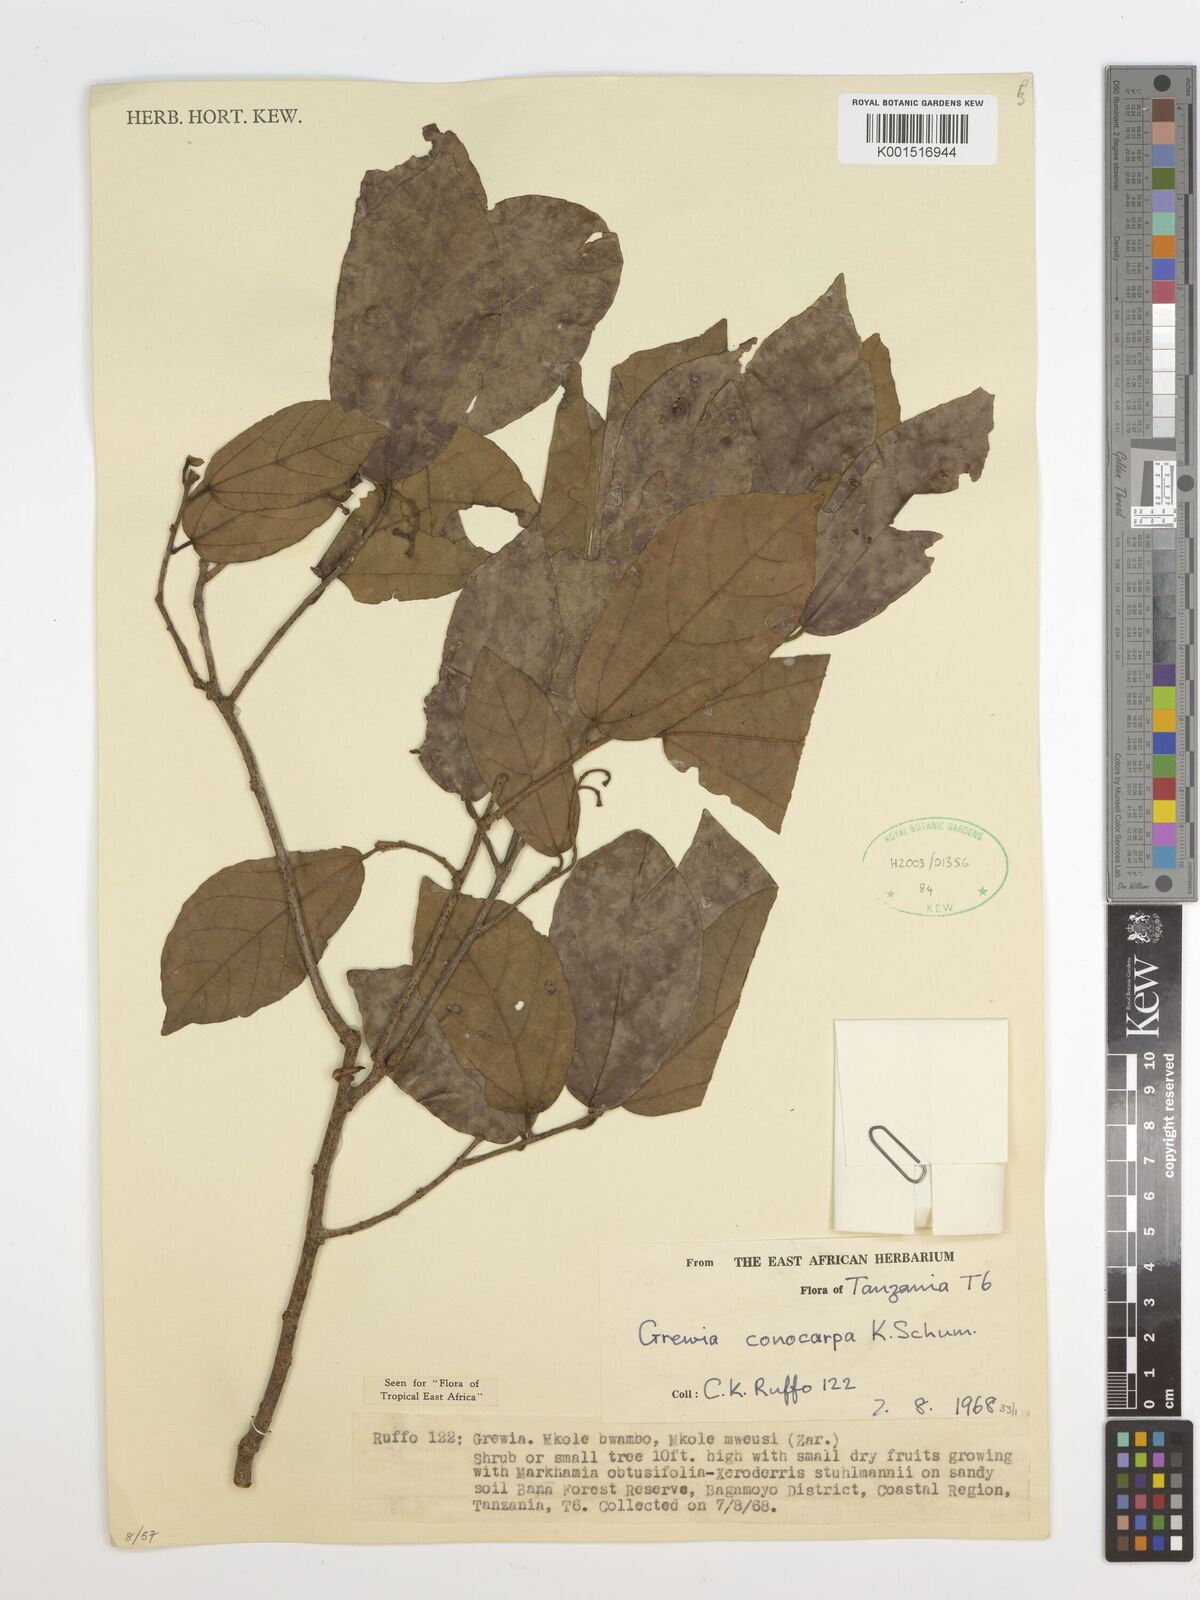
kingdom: Plantae
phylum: Tracheophyta
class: Magnoliopsida
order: Malvales
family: Malvaceae
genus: Microcos
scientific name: Microcos conocarpa
